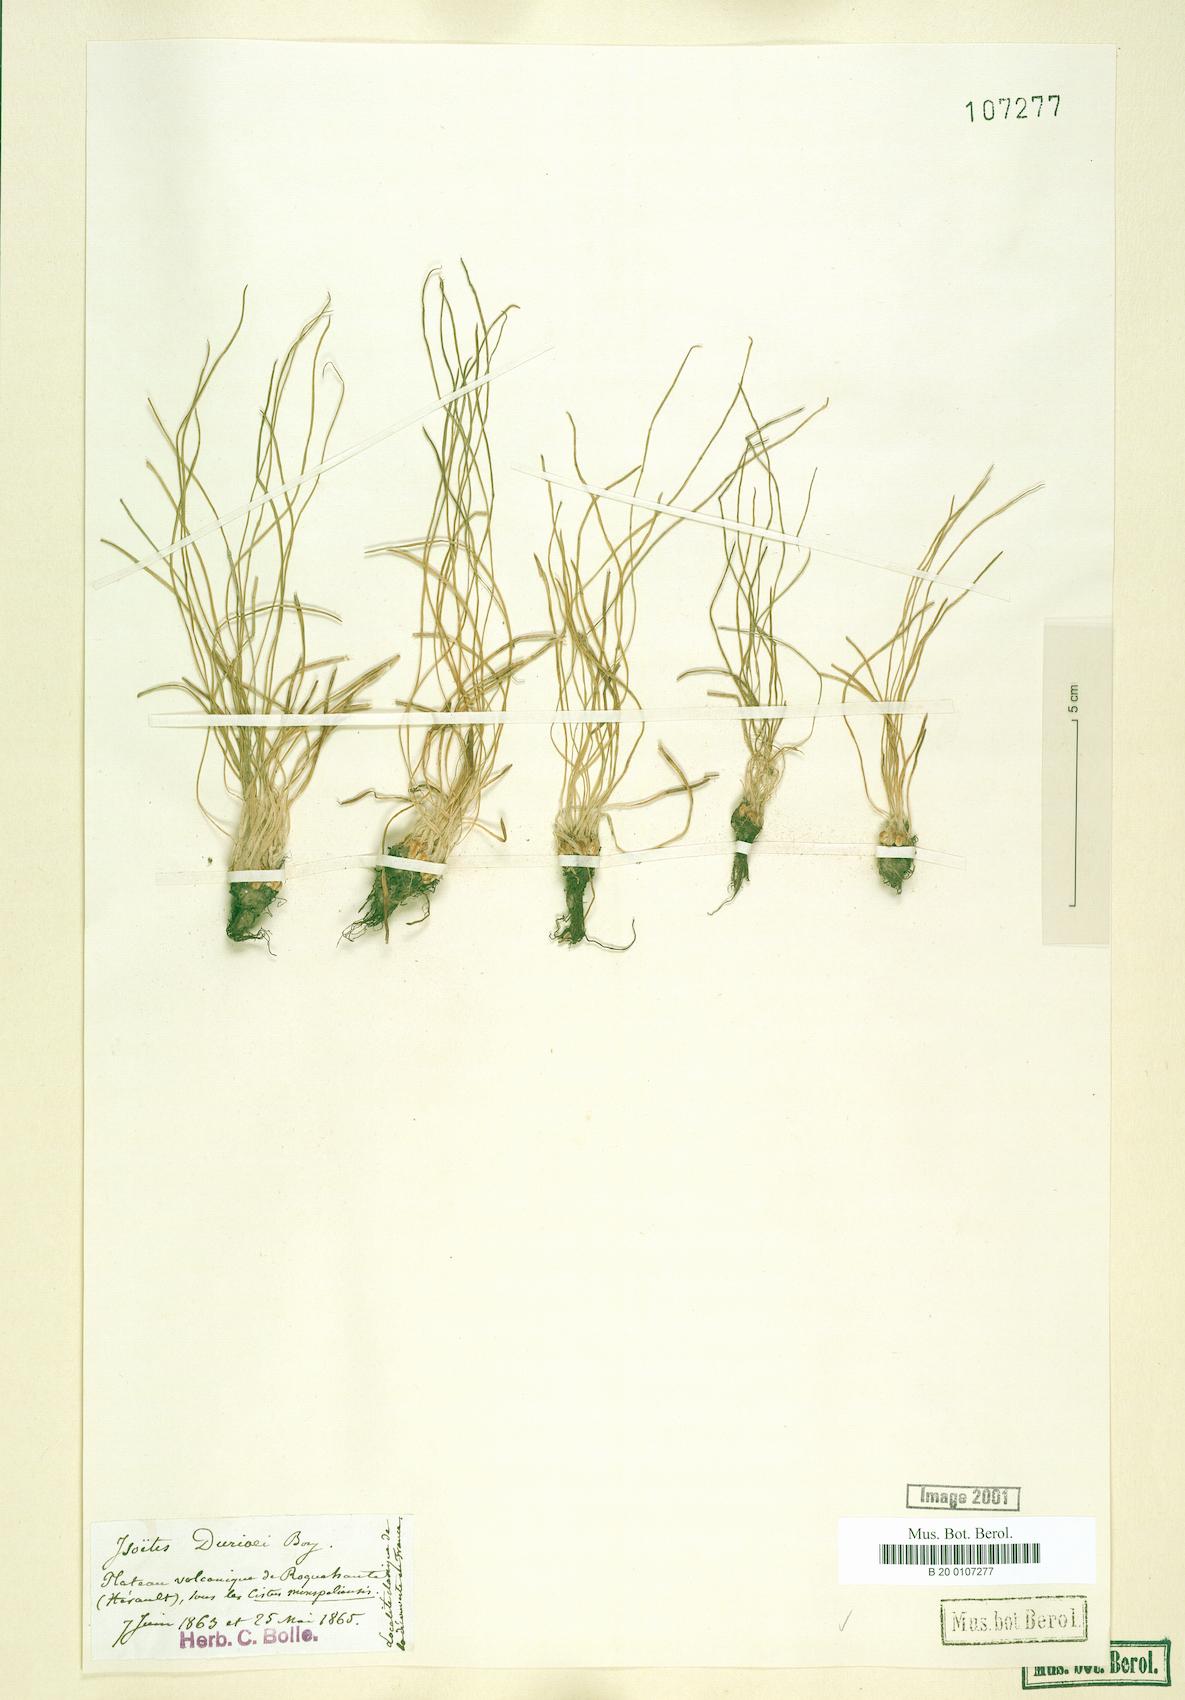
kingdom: Plantae
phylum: Tracheophyta
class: Lycopodiopsida
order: Isoetales
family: Isoetaceae
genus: Isoetes
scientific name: Isoetes duriei
